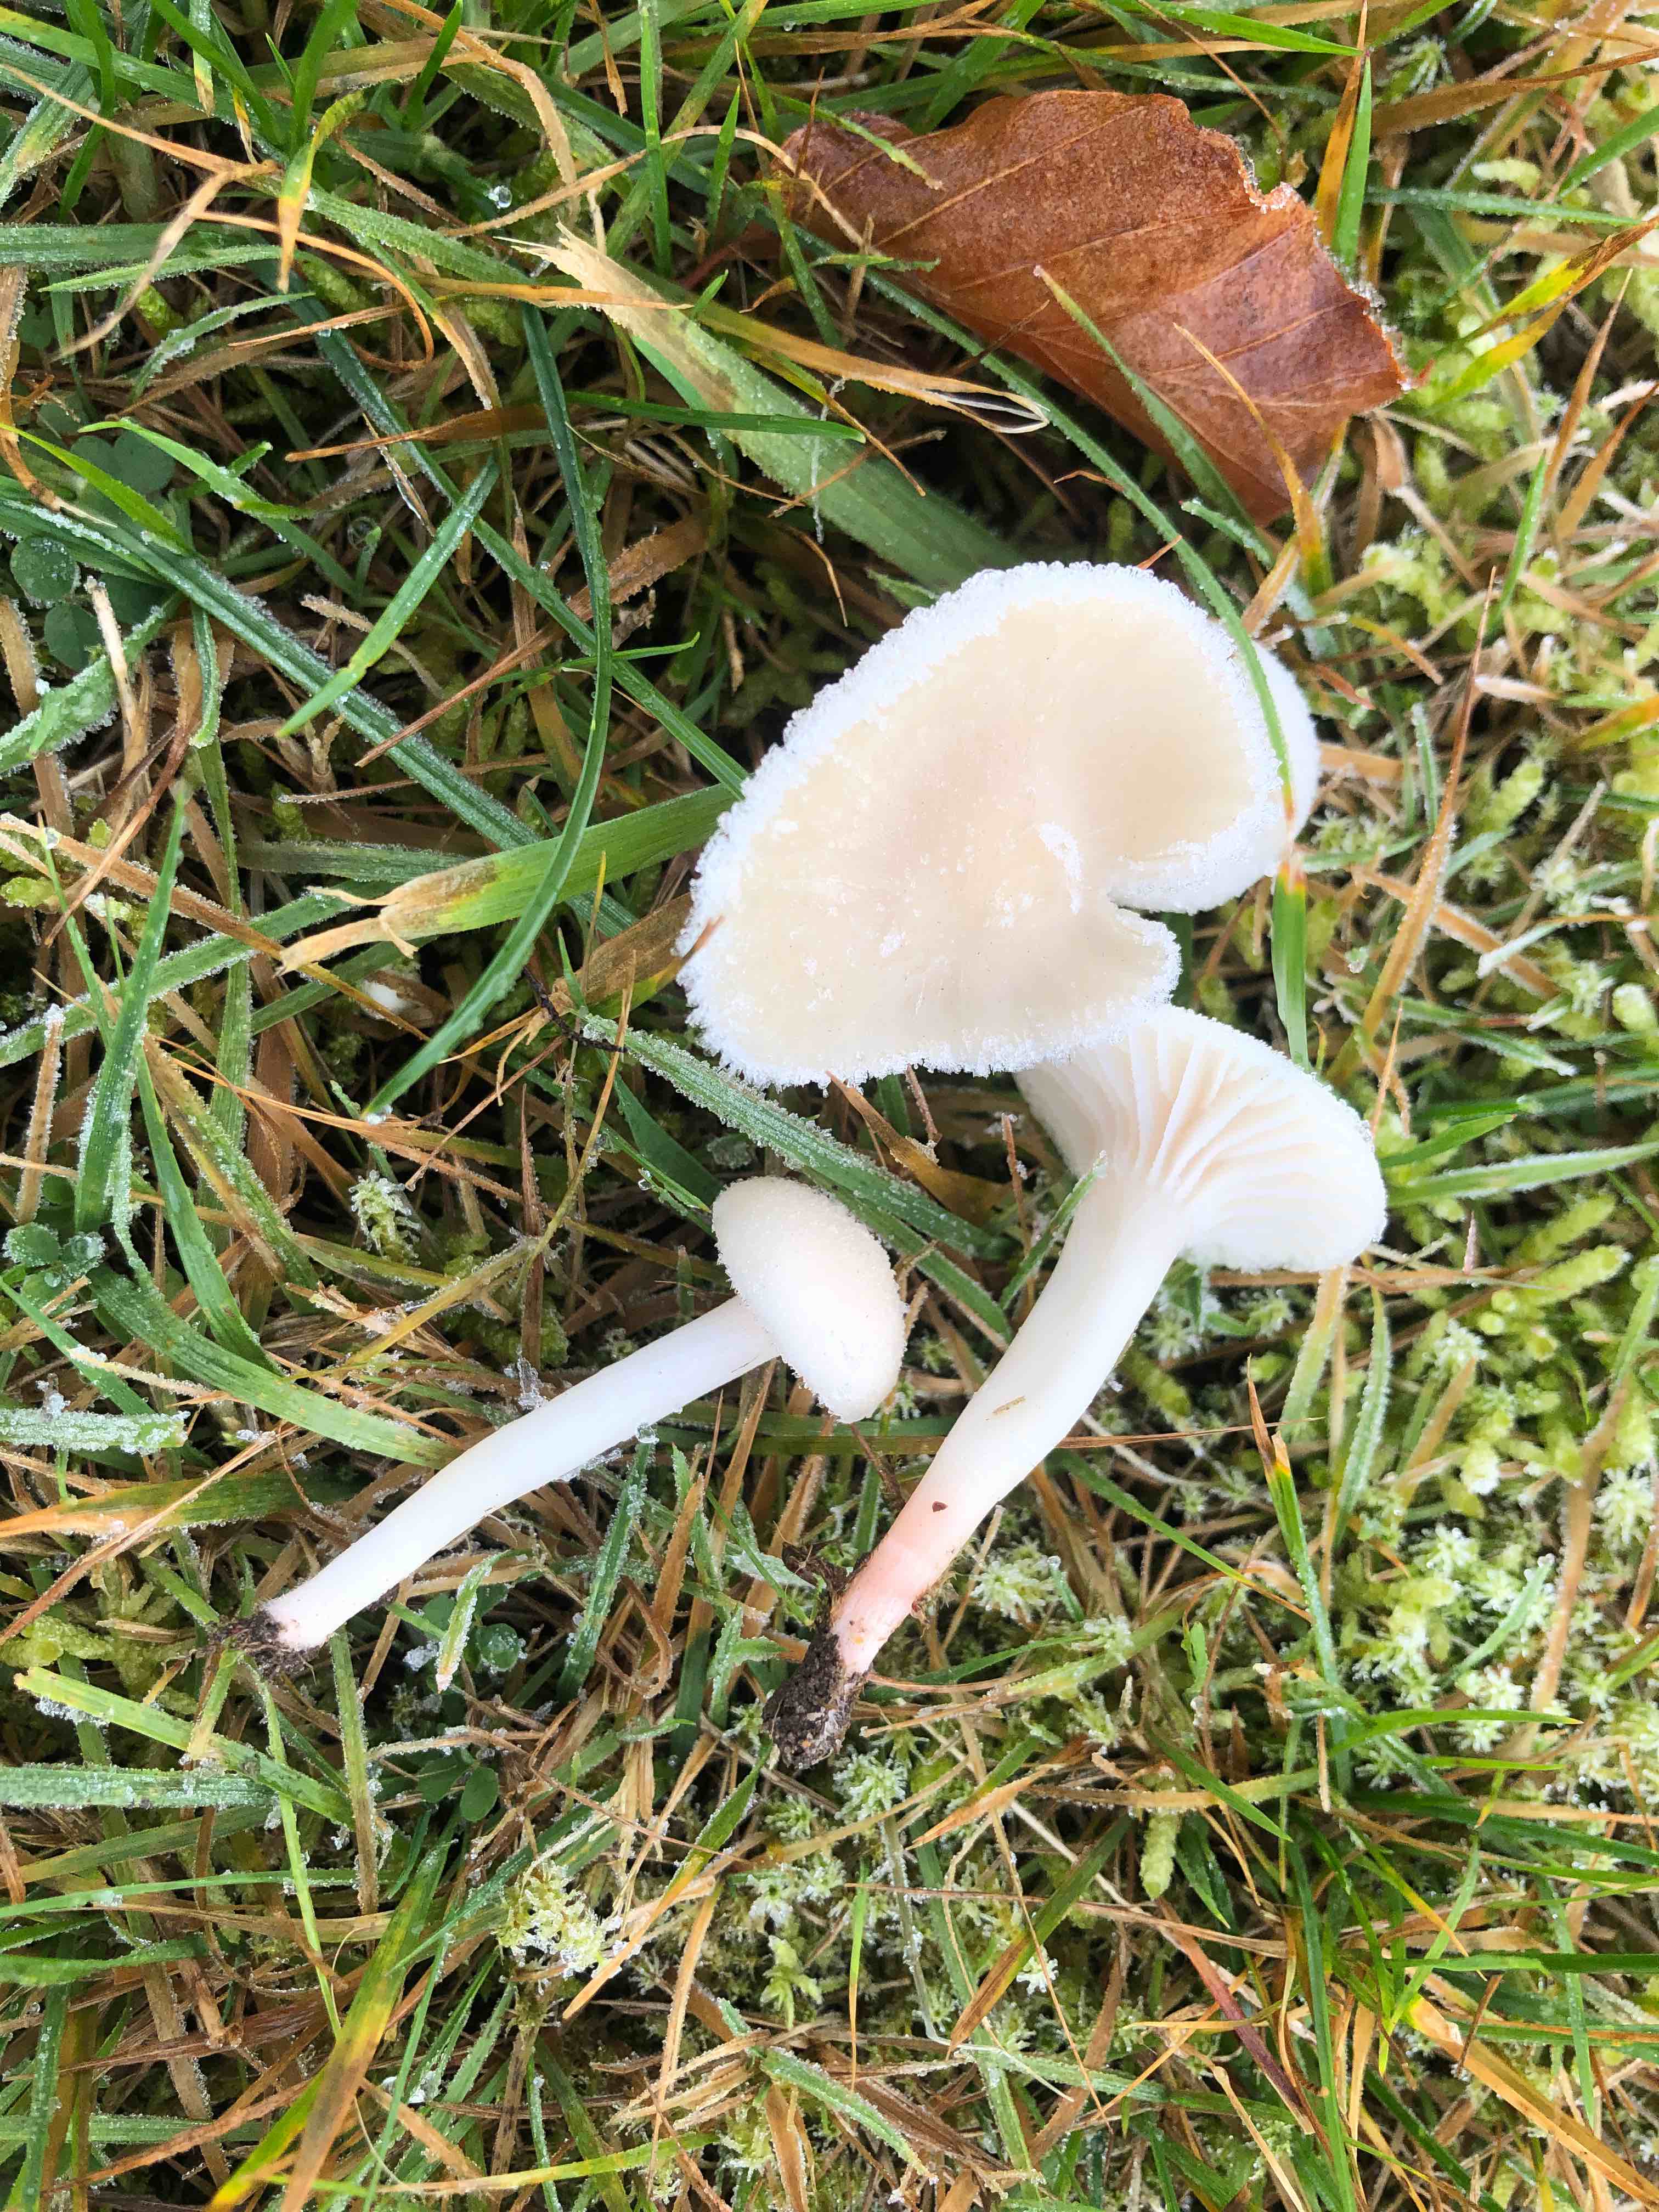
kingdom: Fungi
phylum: Basidiomycota
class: Agaricomycetes
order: Agaricales
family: Hygrophoraceae
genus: Cuphophyllus
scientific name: Cuphophyllus virgineus
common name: snehvid vokshat
